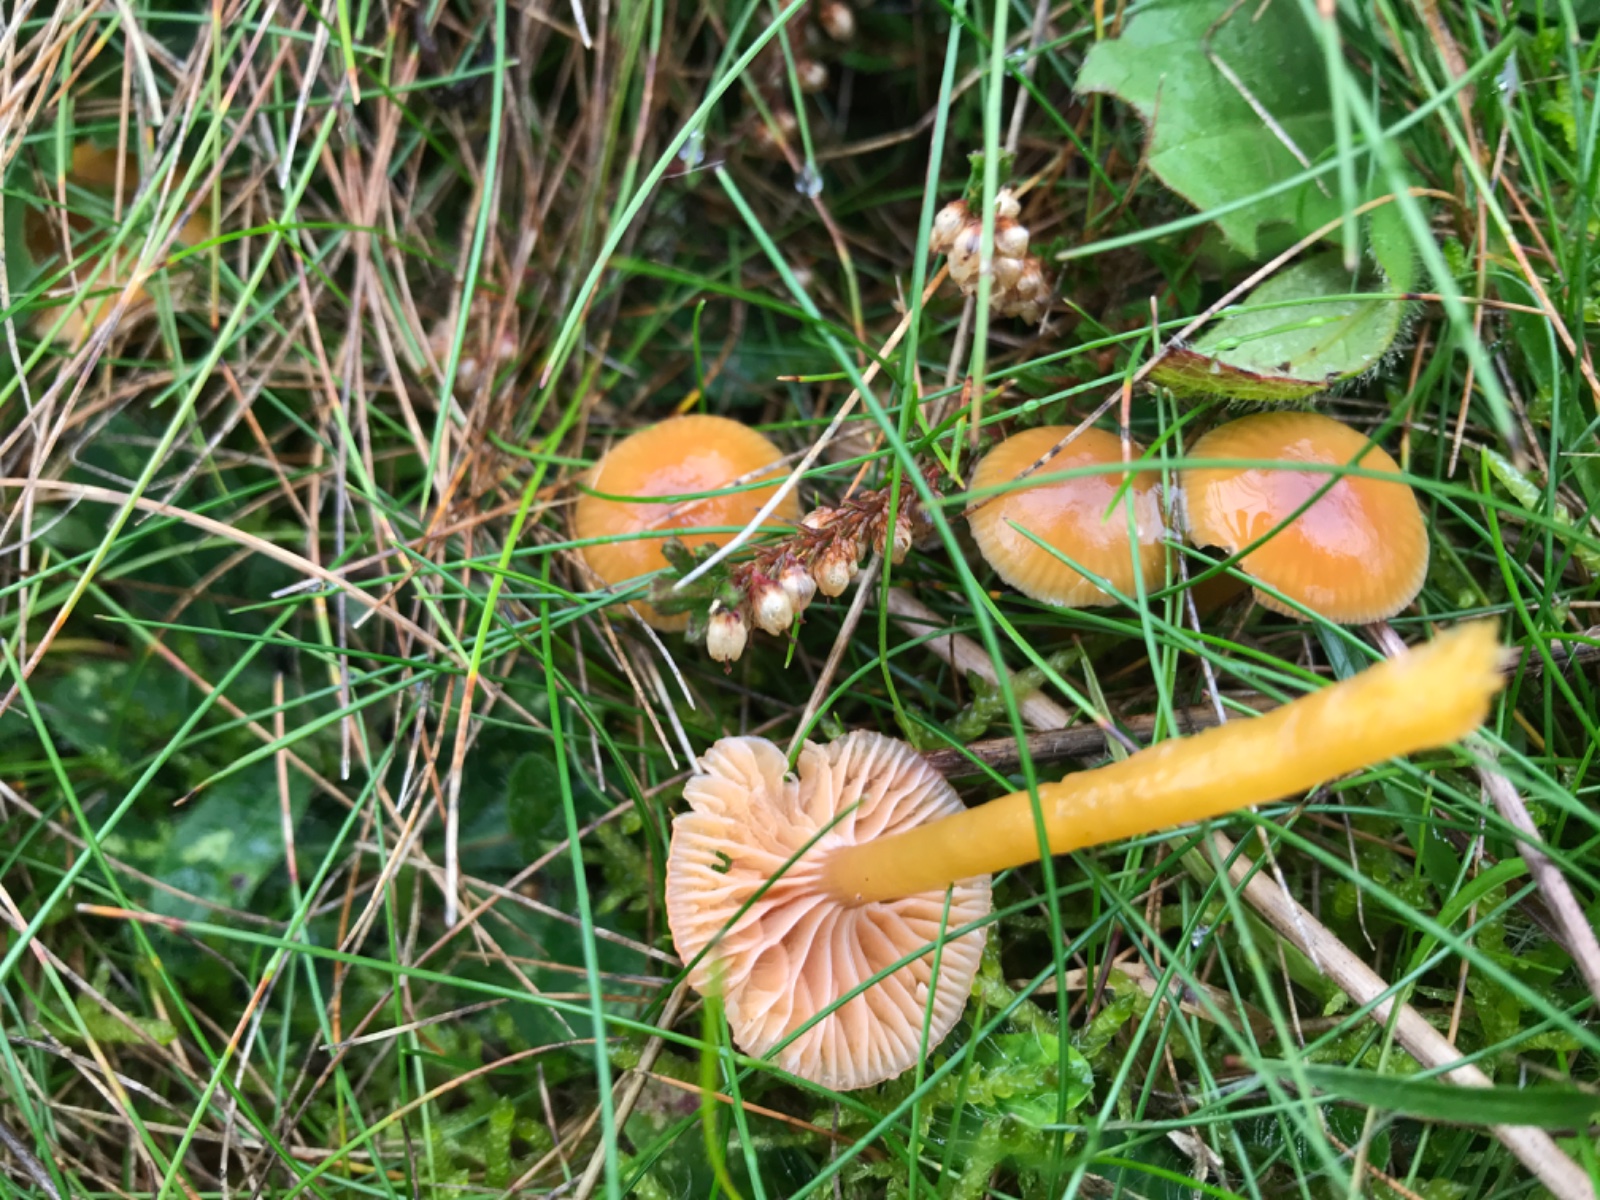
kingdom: Fungi
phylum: Basidiomycota
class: Agaricomycetes
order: Agaricales
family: Hygrophoraceae
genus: Gliophorus
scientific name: Gliophorus laetus
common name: brusk-vokshat
